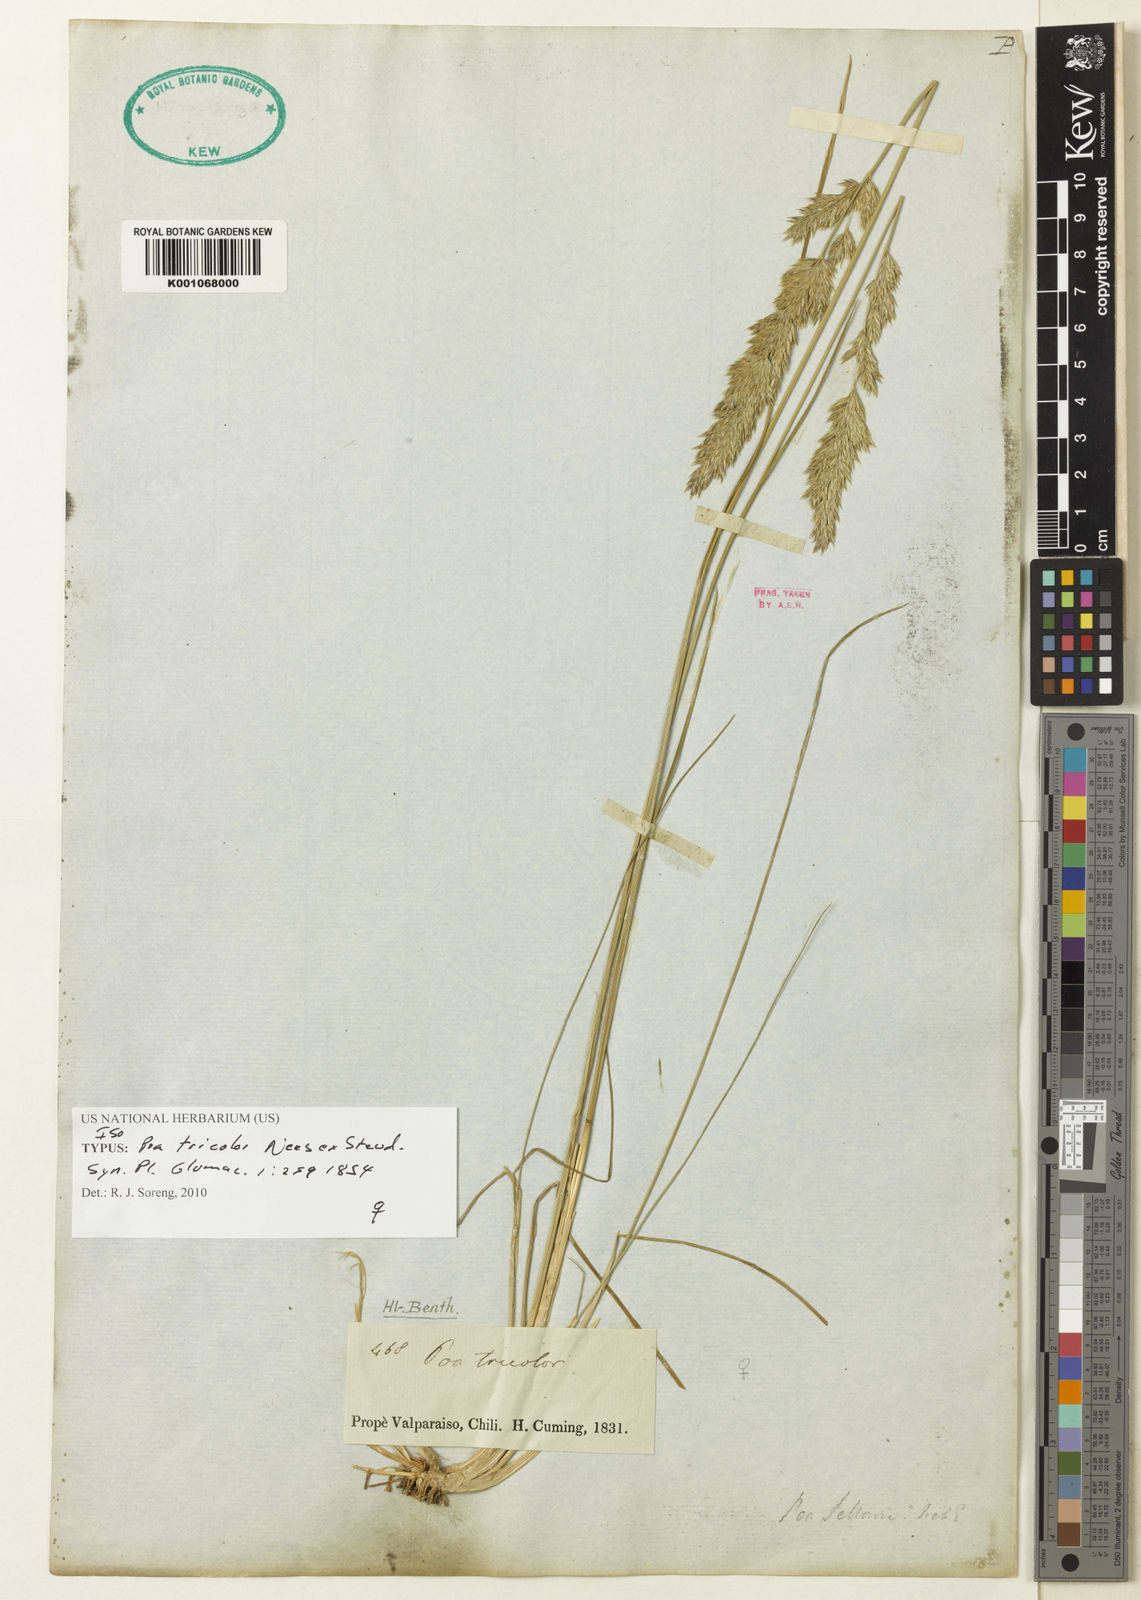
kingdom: Plantae
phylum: Tracheophyta
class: Liliopsida
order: Poales
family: Poaceae
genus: Poa
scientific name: Poa tricolor
